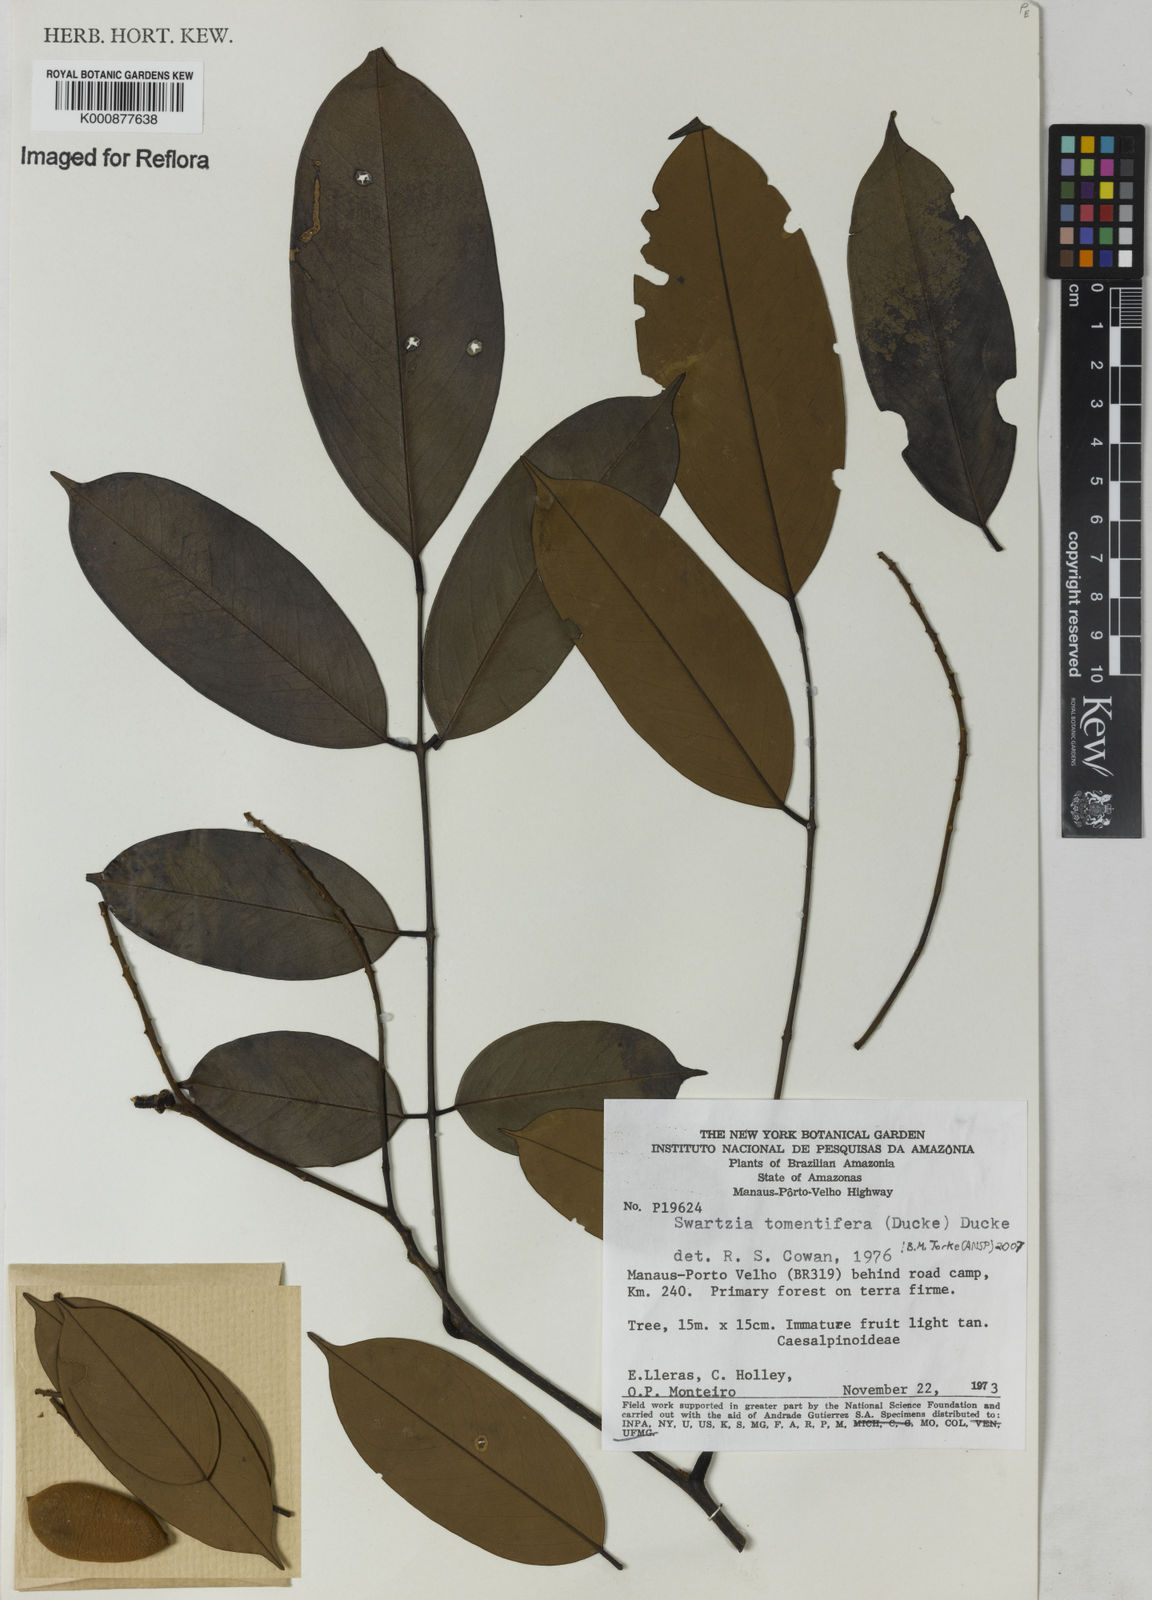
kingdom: Plantae
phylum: Tracheophyta
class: Magnoliopsida
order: Fabales
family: Fabaceae
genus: Swartzia
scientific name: Swartzia tomentifera
